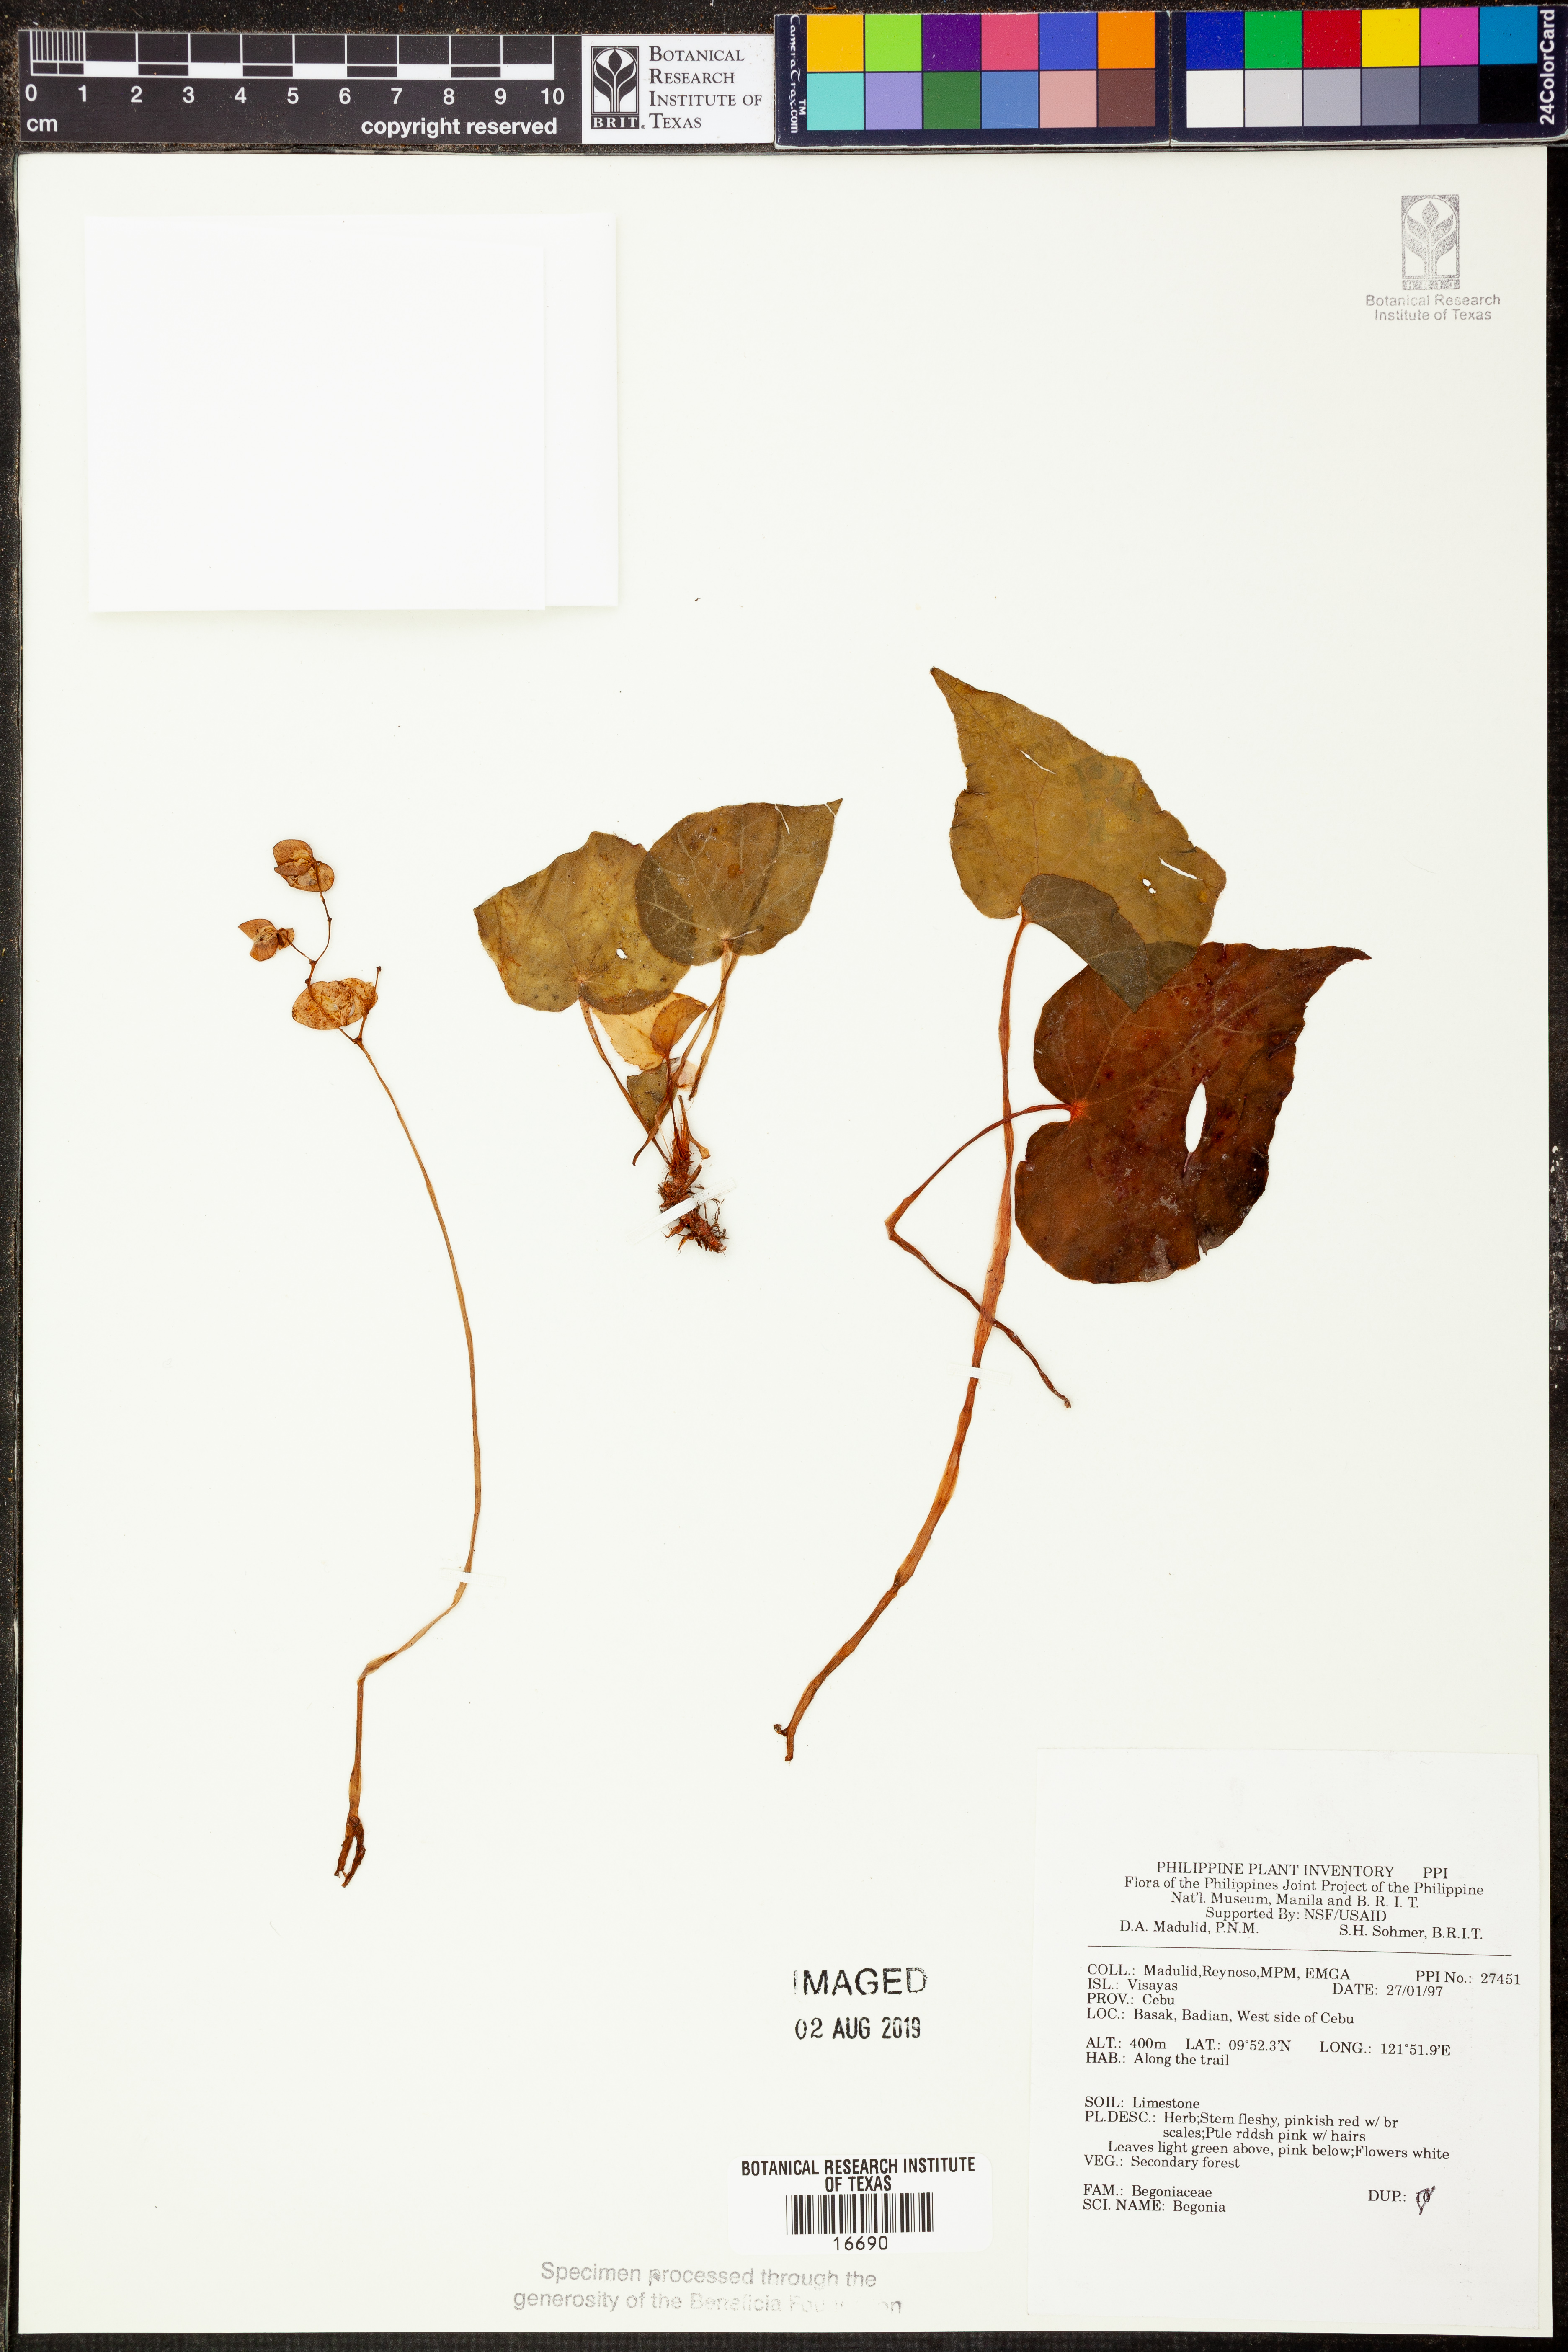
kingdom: Plantae
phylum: Tracheophyta
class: Magnoliopsida
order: Cucurbitales
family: Begoniaceae
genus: Begonia
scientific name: Begonia
